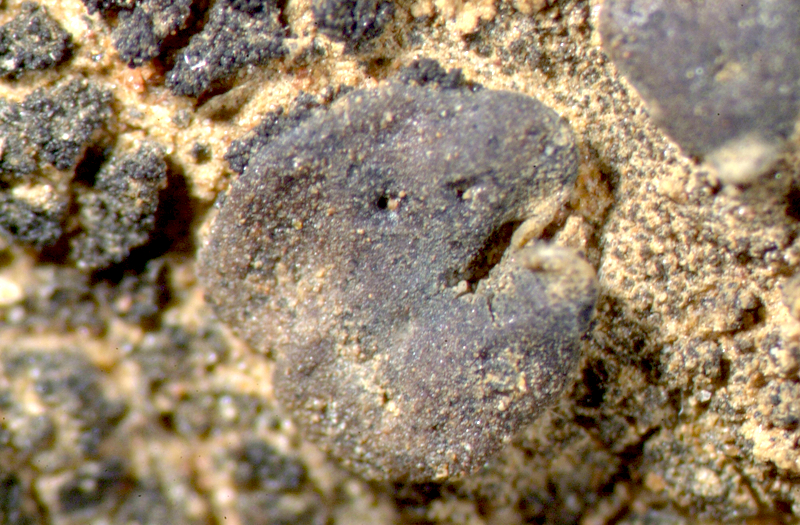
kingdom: Fungi
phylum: Ascomycota
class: Eurotiomycetes
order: Verrucariales
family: Verrucariaceae
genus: Catapyrenium
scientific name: Catapyrenium squamulosum
